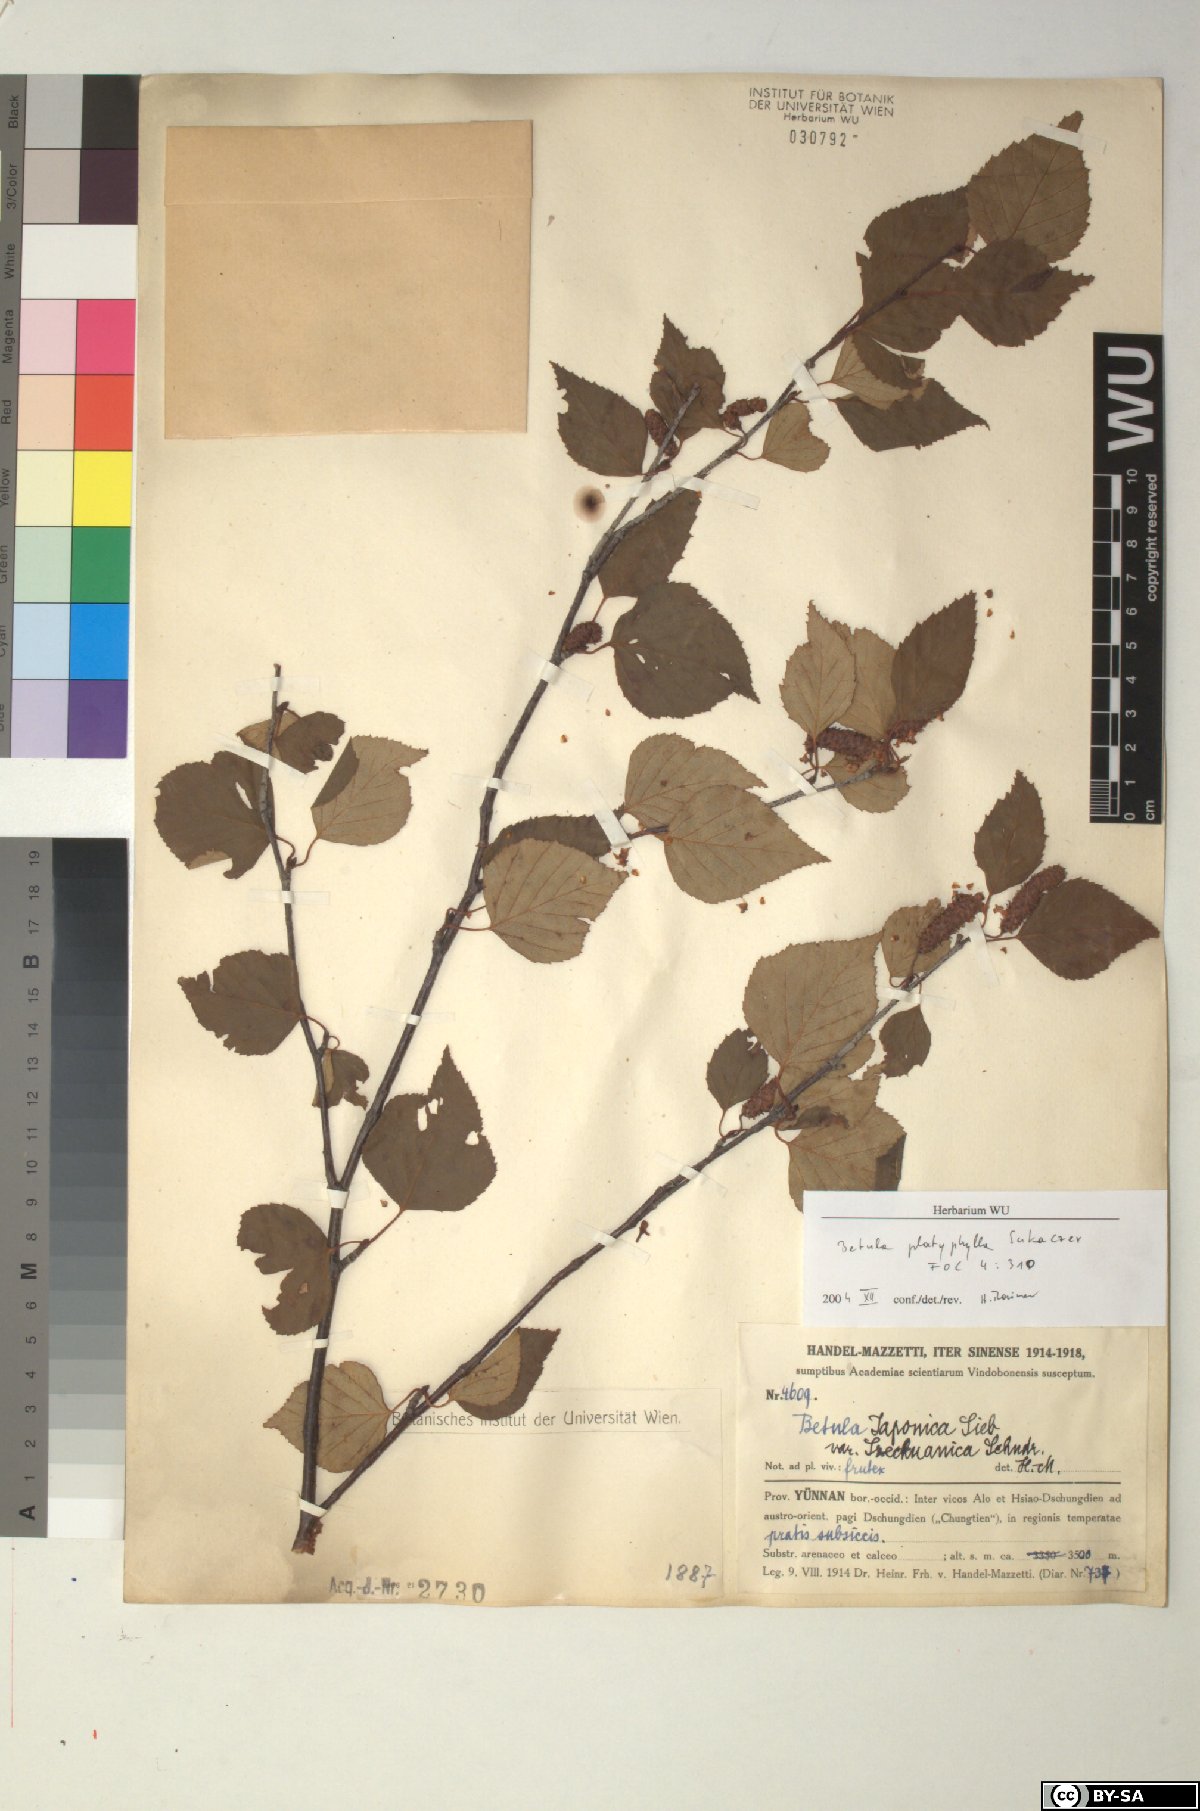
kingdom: Plantae
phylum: Tracheophyta
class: Magnoliopsida
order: Fagales
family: Betulaceae
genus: Betula
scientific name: Betula pendula
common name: Silver birch
